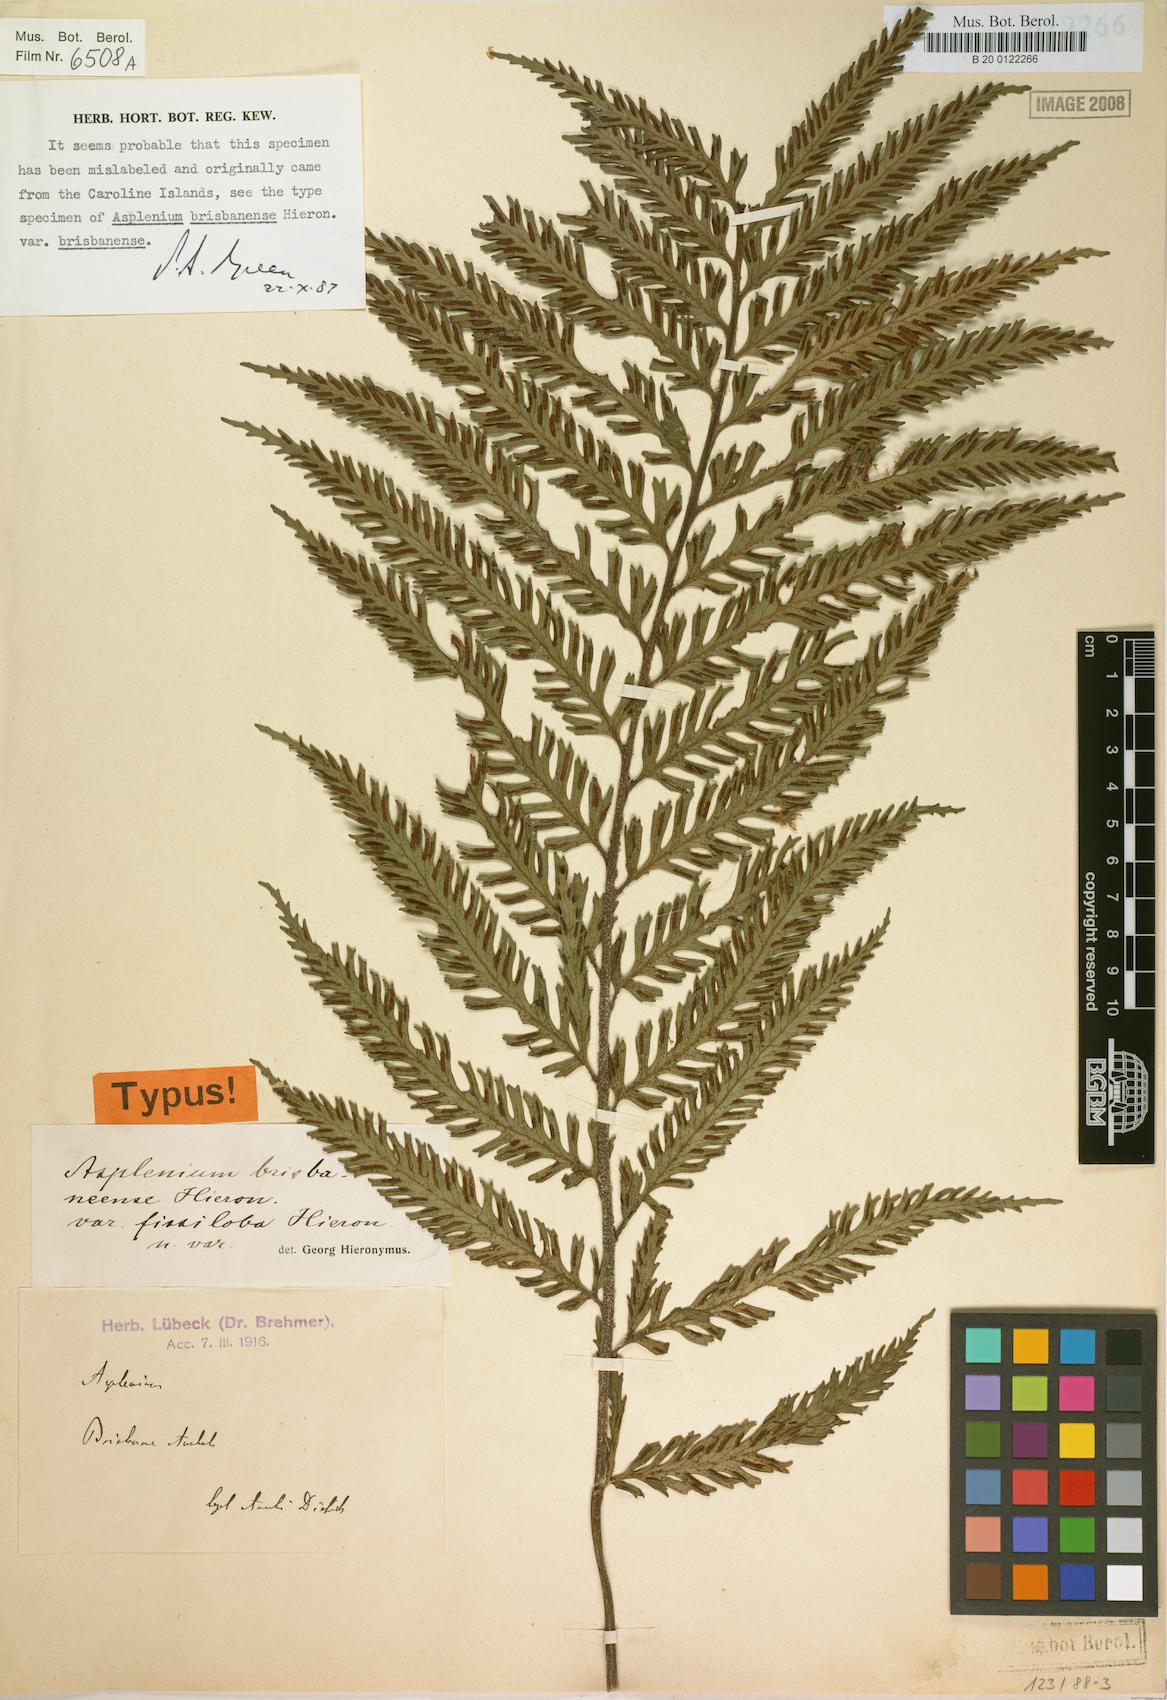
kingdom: Plantae
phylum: Tracheophyta
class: Polypodiopsida
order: Polypodiales
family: Aspleniaceae
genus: Asplenium
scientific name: Asplenium vulcanicum
